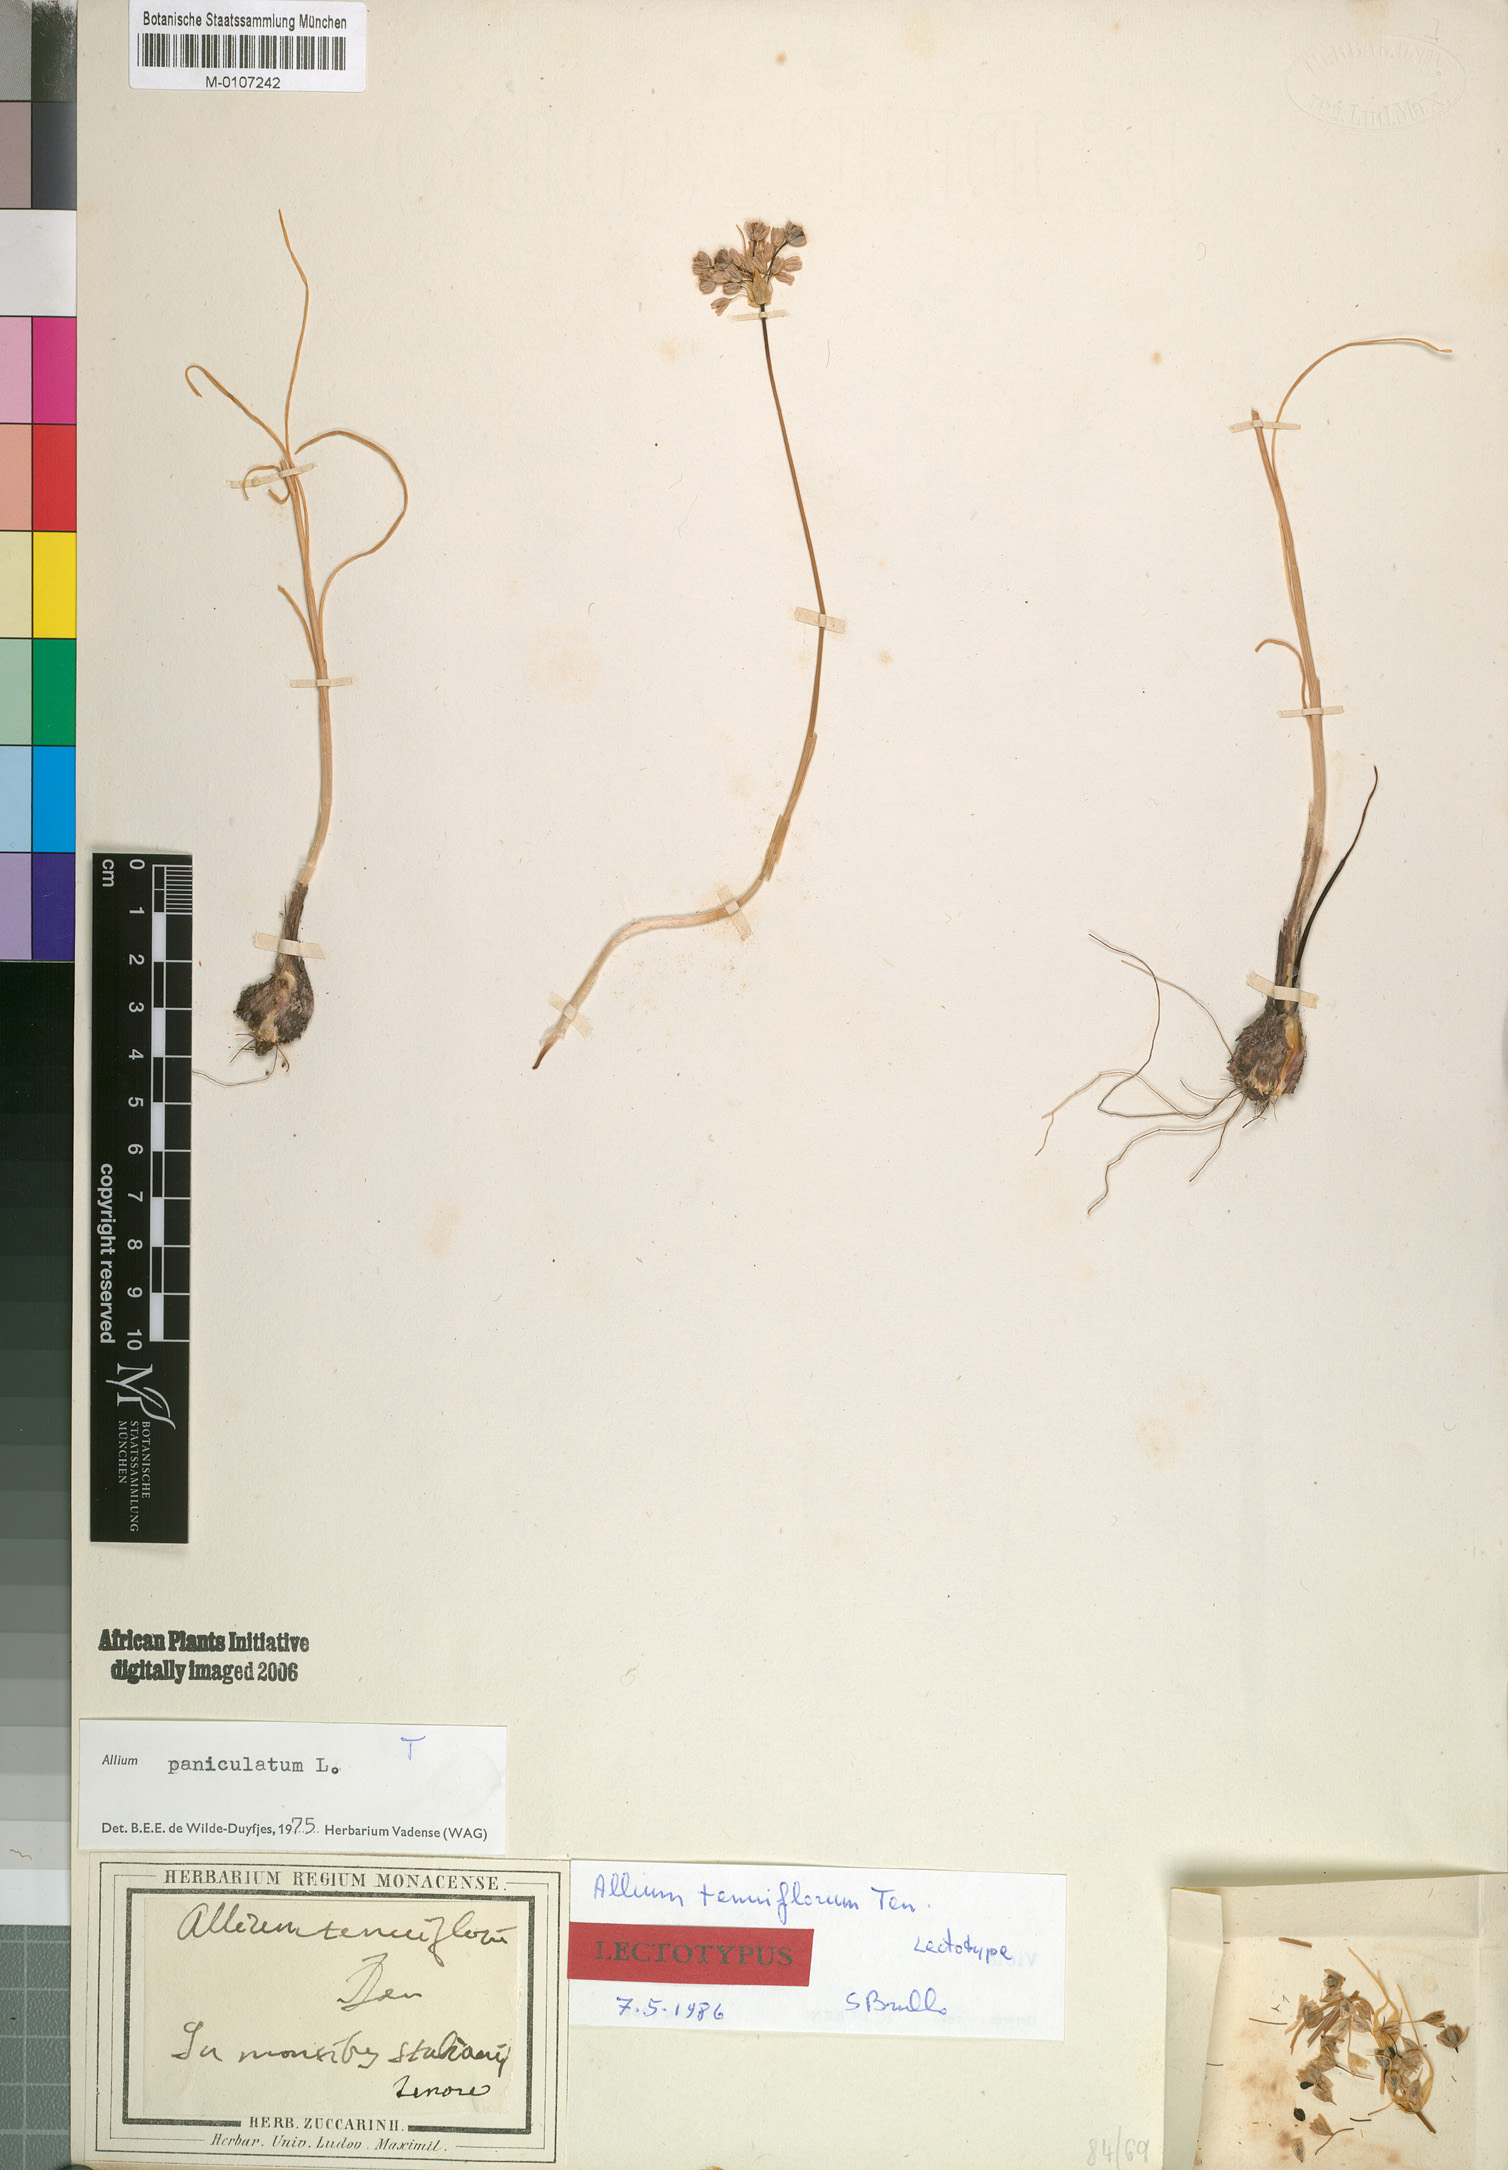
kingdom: Plantae
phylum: Tracheophyta
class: Liliopsida
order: Asparagales
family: Amaryllidaceae
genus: Allium
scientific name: Allium tenuiflorum
